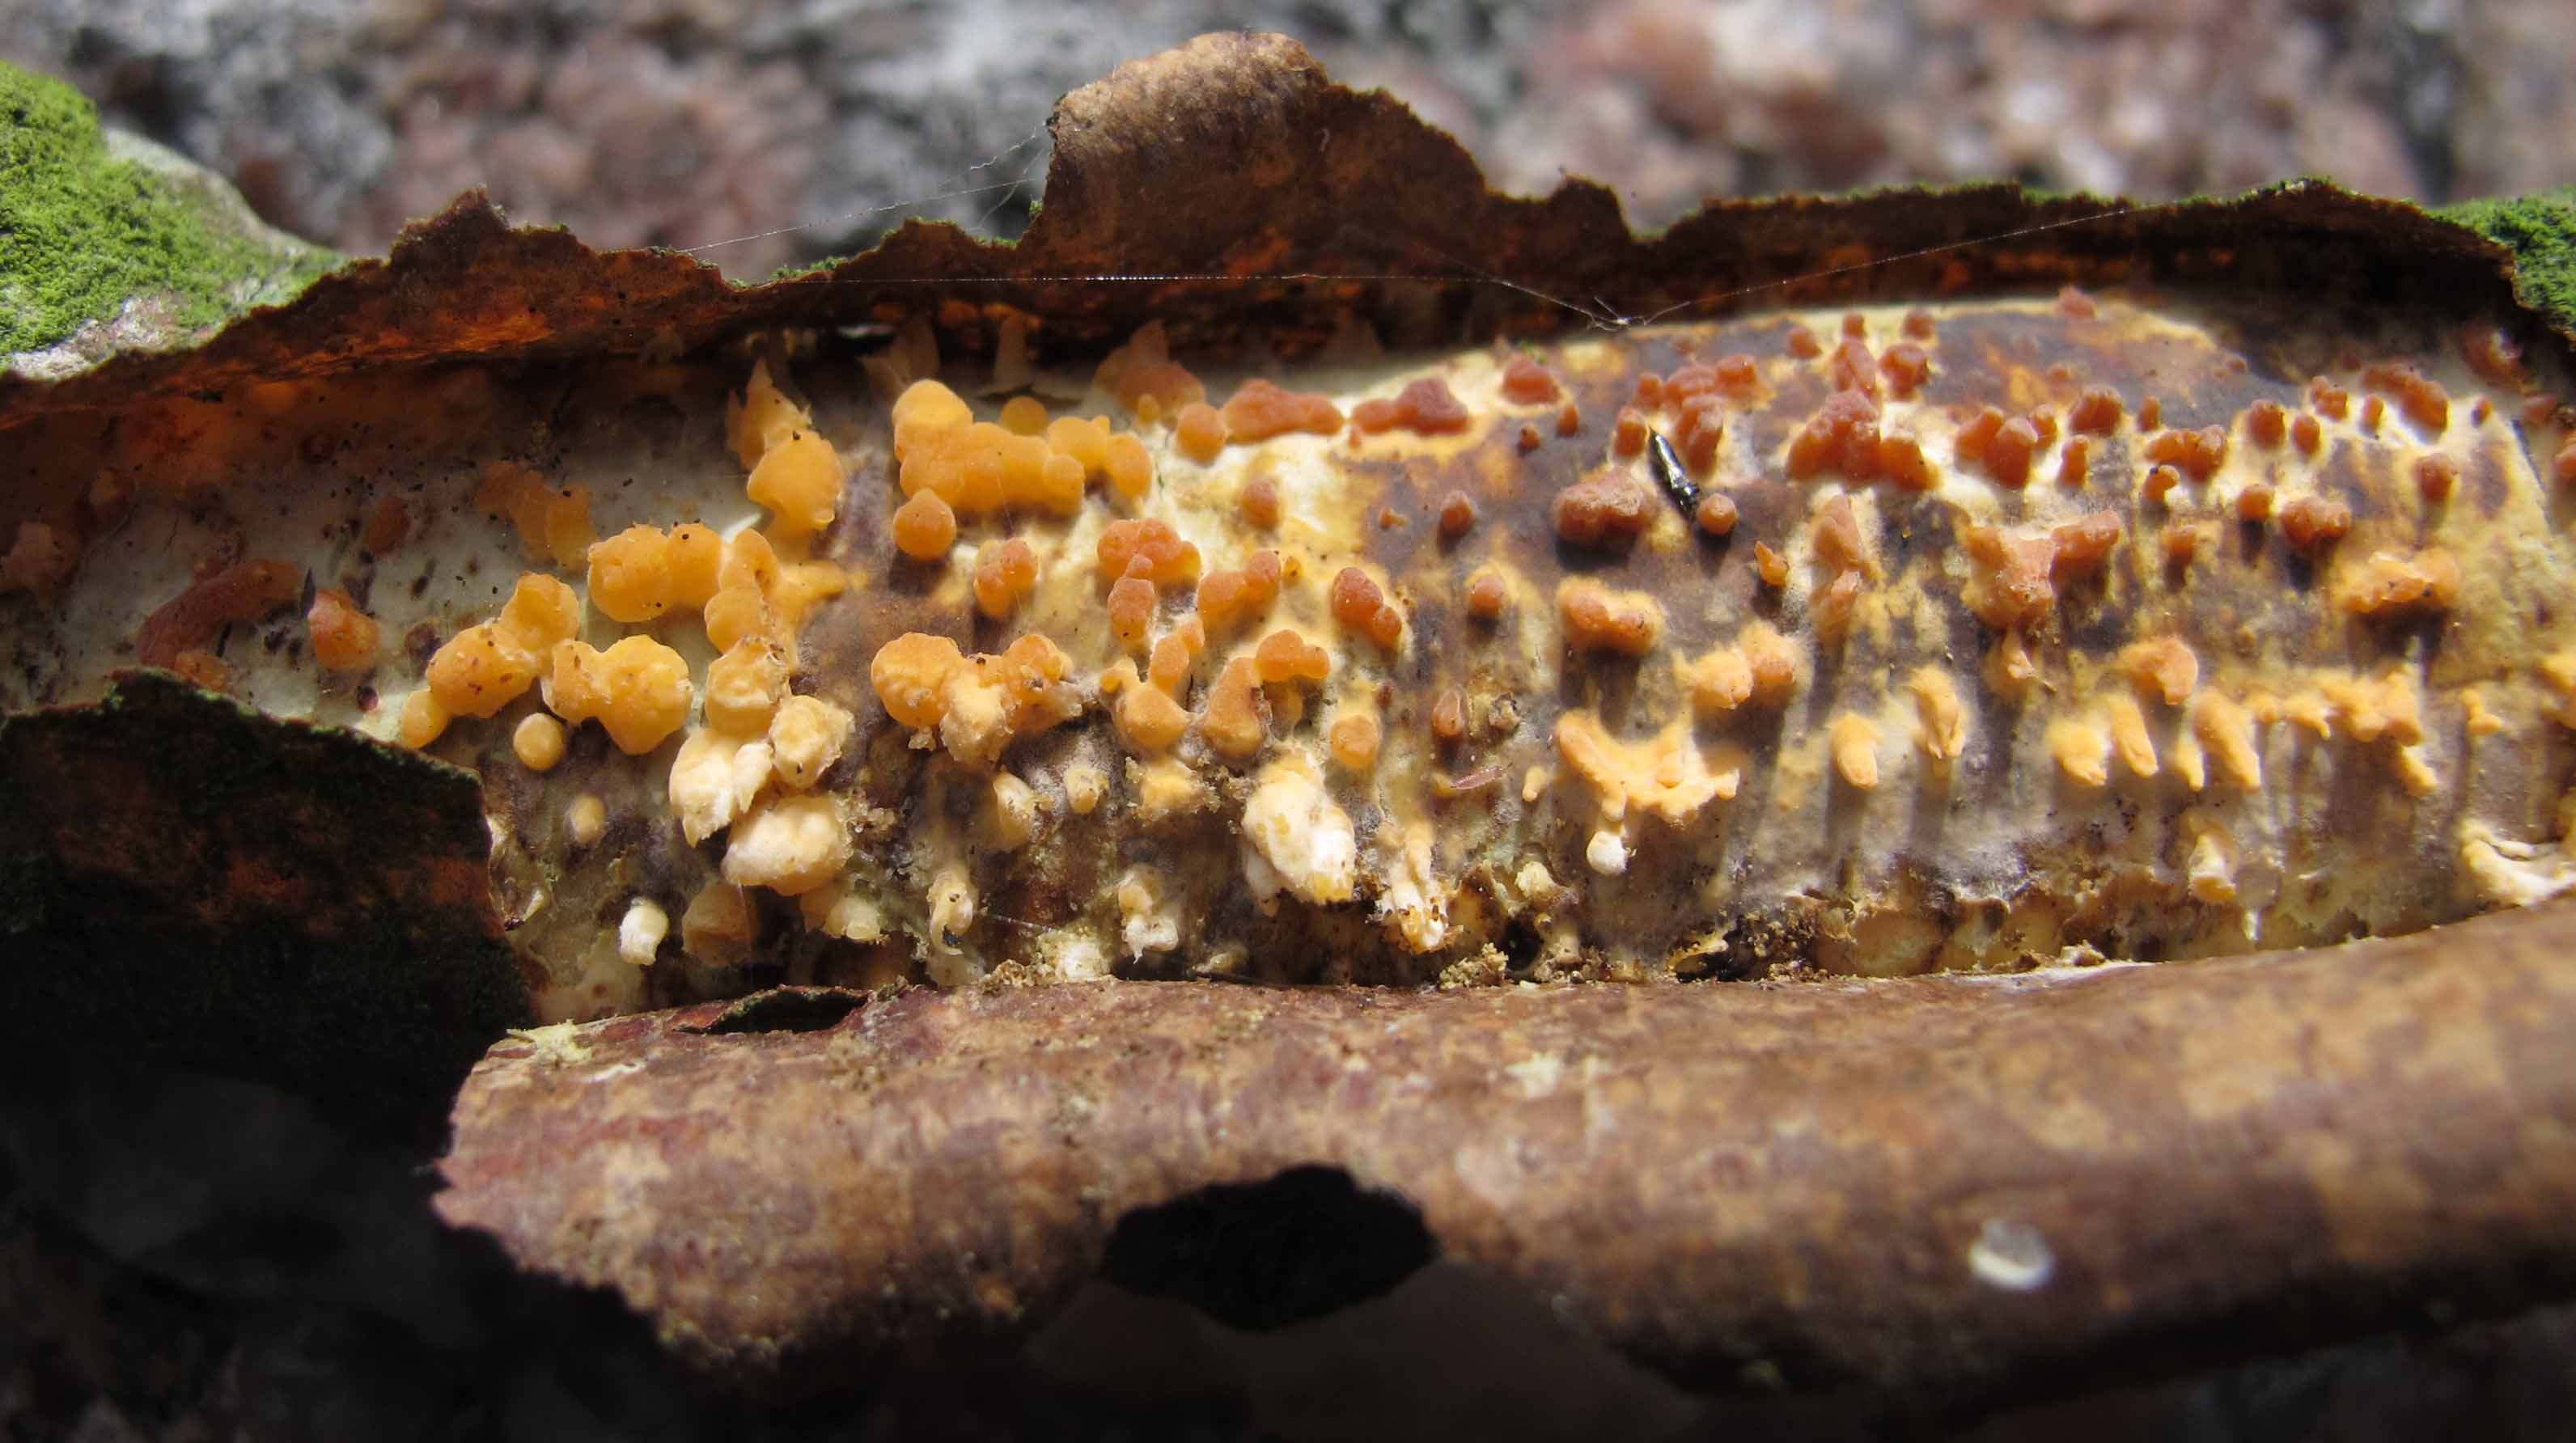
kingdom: Fungi
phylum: Basidiomycota
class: Agaricomycetes
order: Russulales
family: Peniophoraceae
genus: Peniophora
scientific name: Peniophora laeta
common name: tandet voksskind
